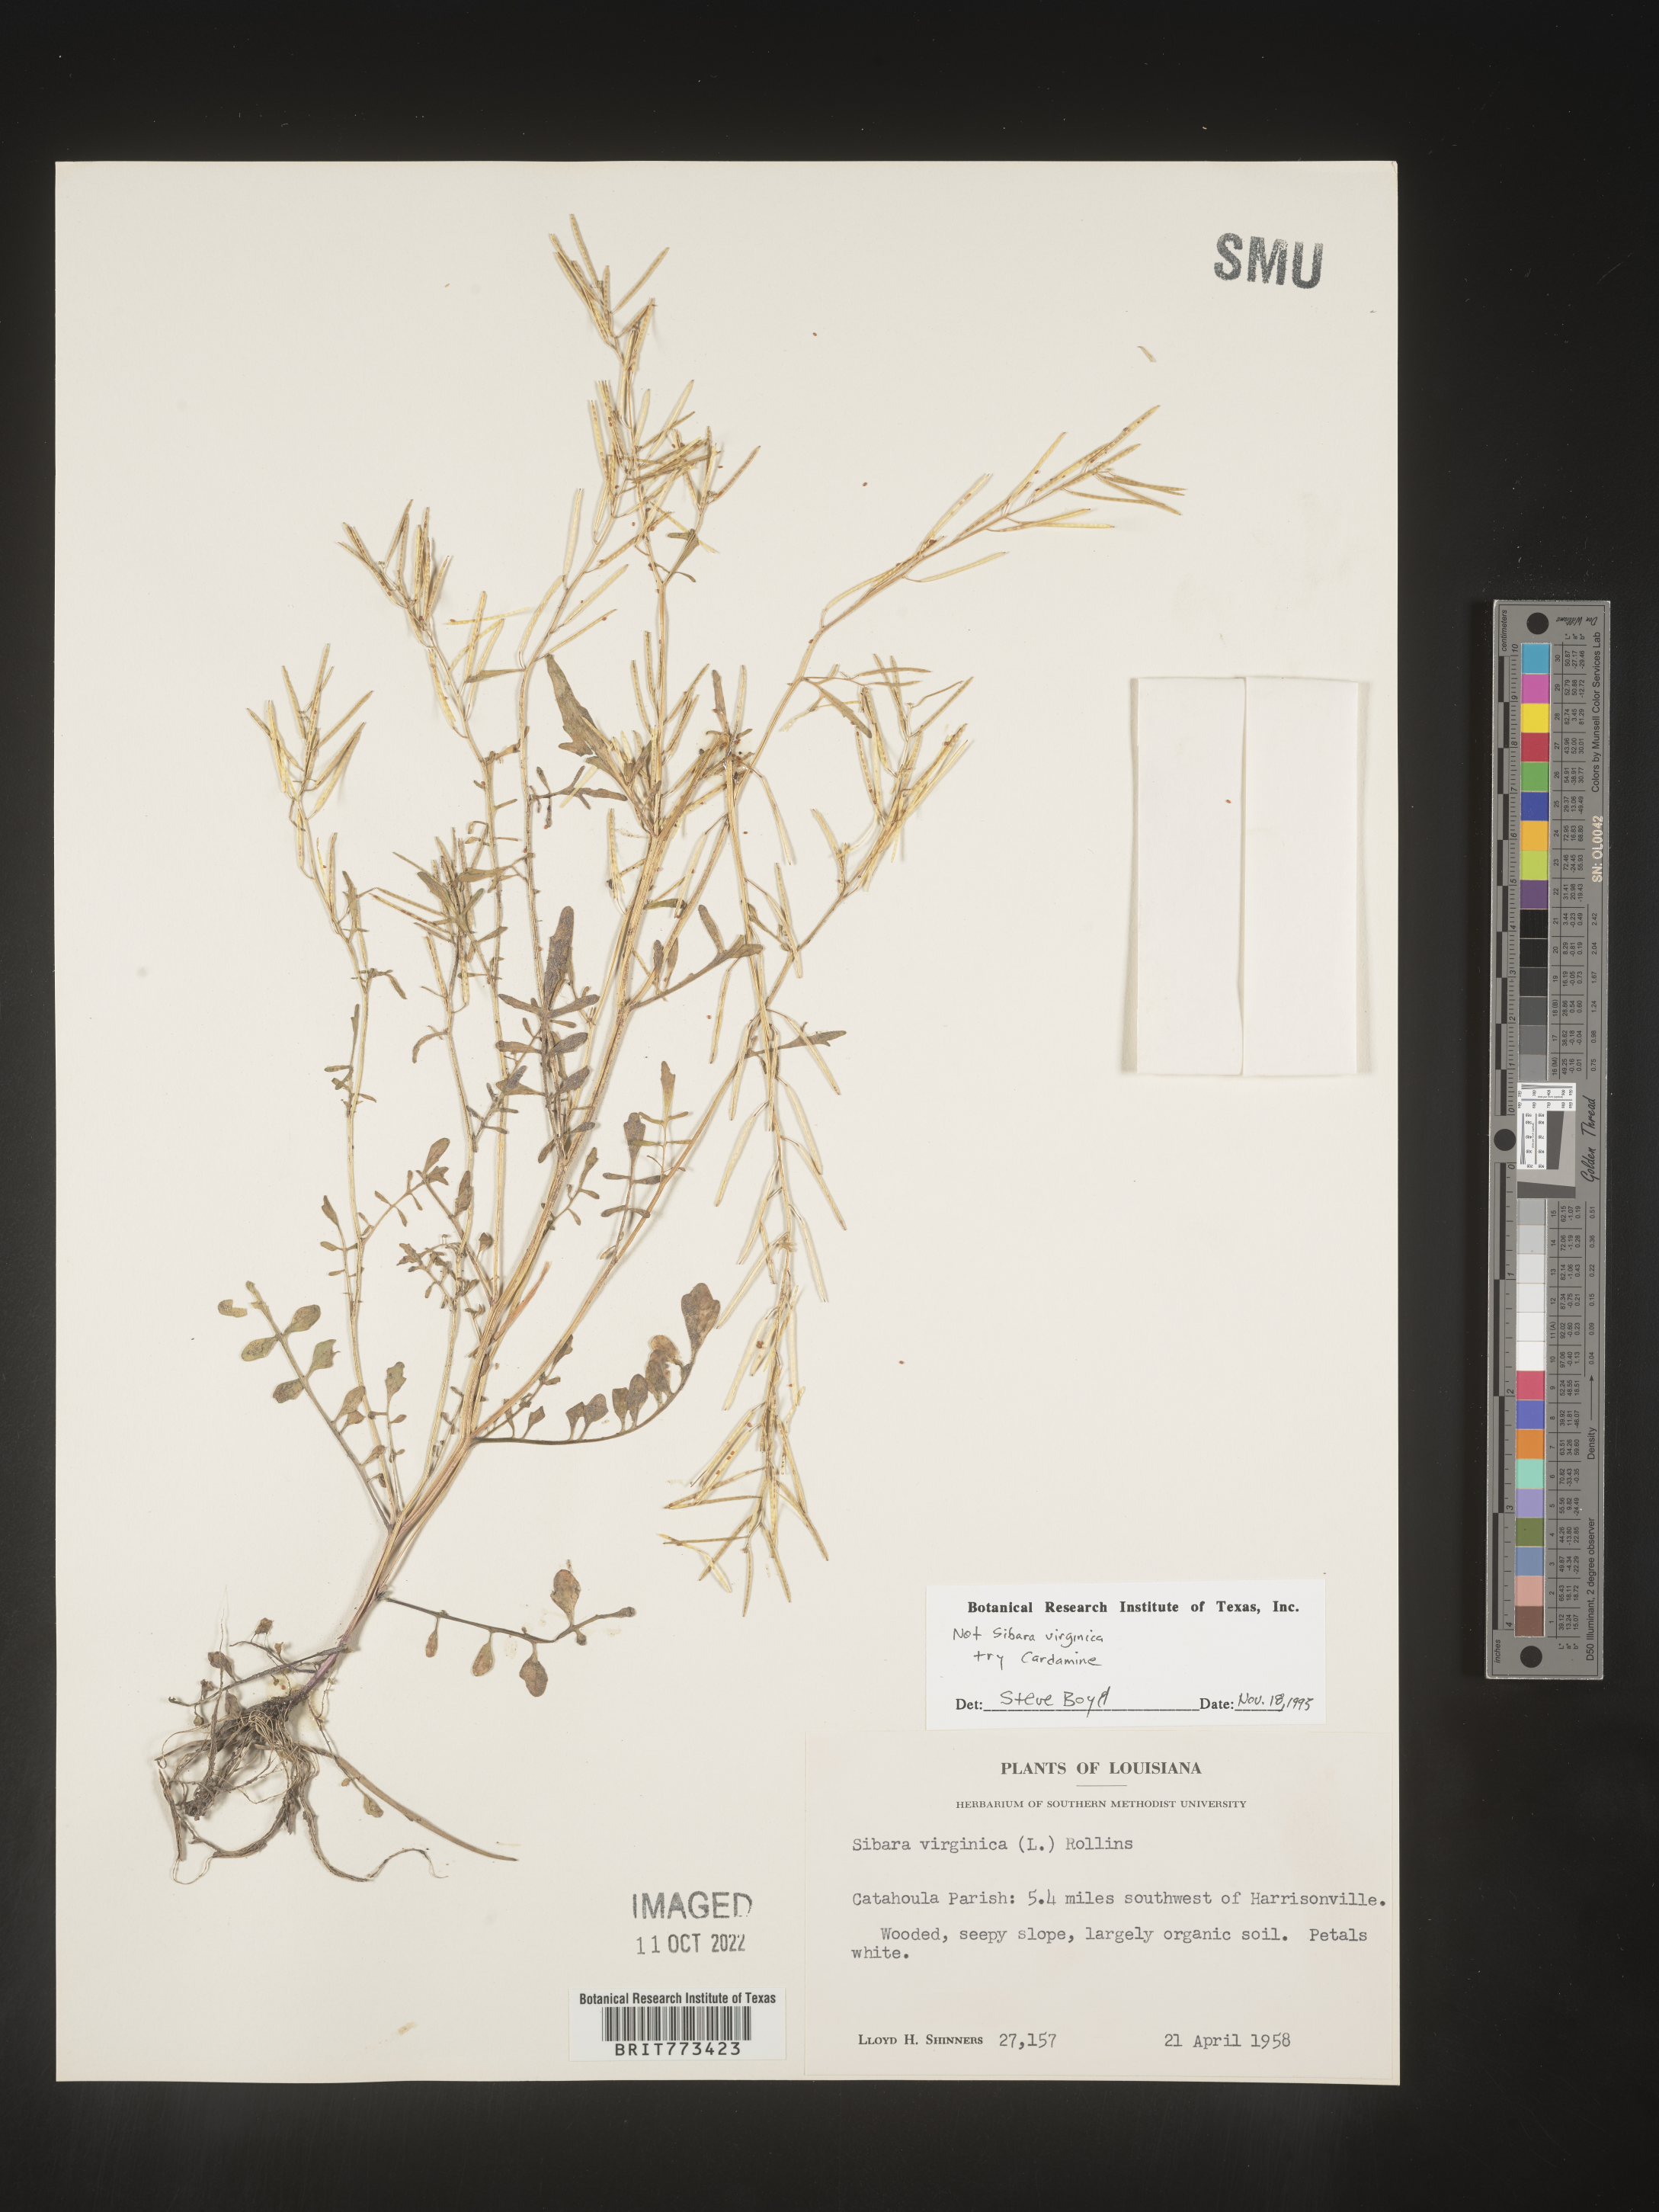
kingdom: Plantae
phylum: Tracheophyta
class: Magnoliopsida
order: Brassicales
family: Brassicaceae
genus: Cardamine
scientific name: Cardamine
